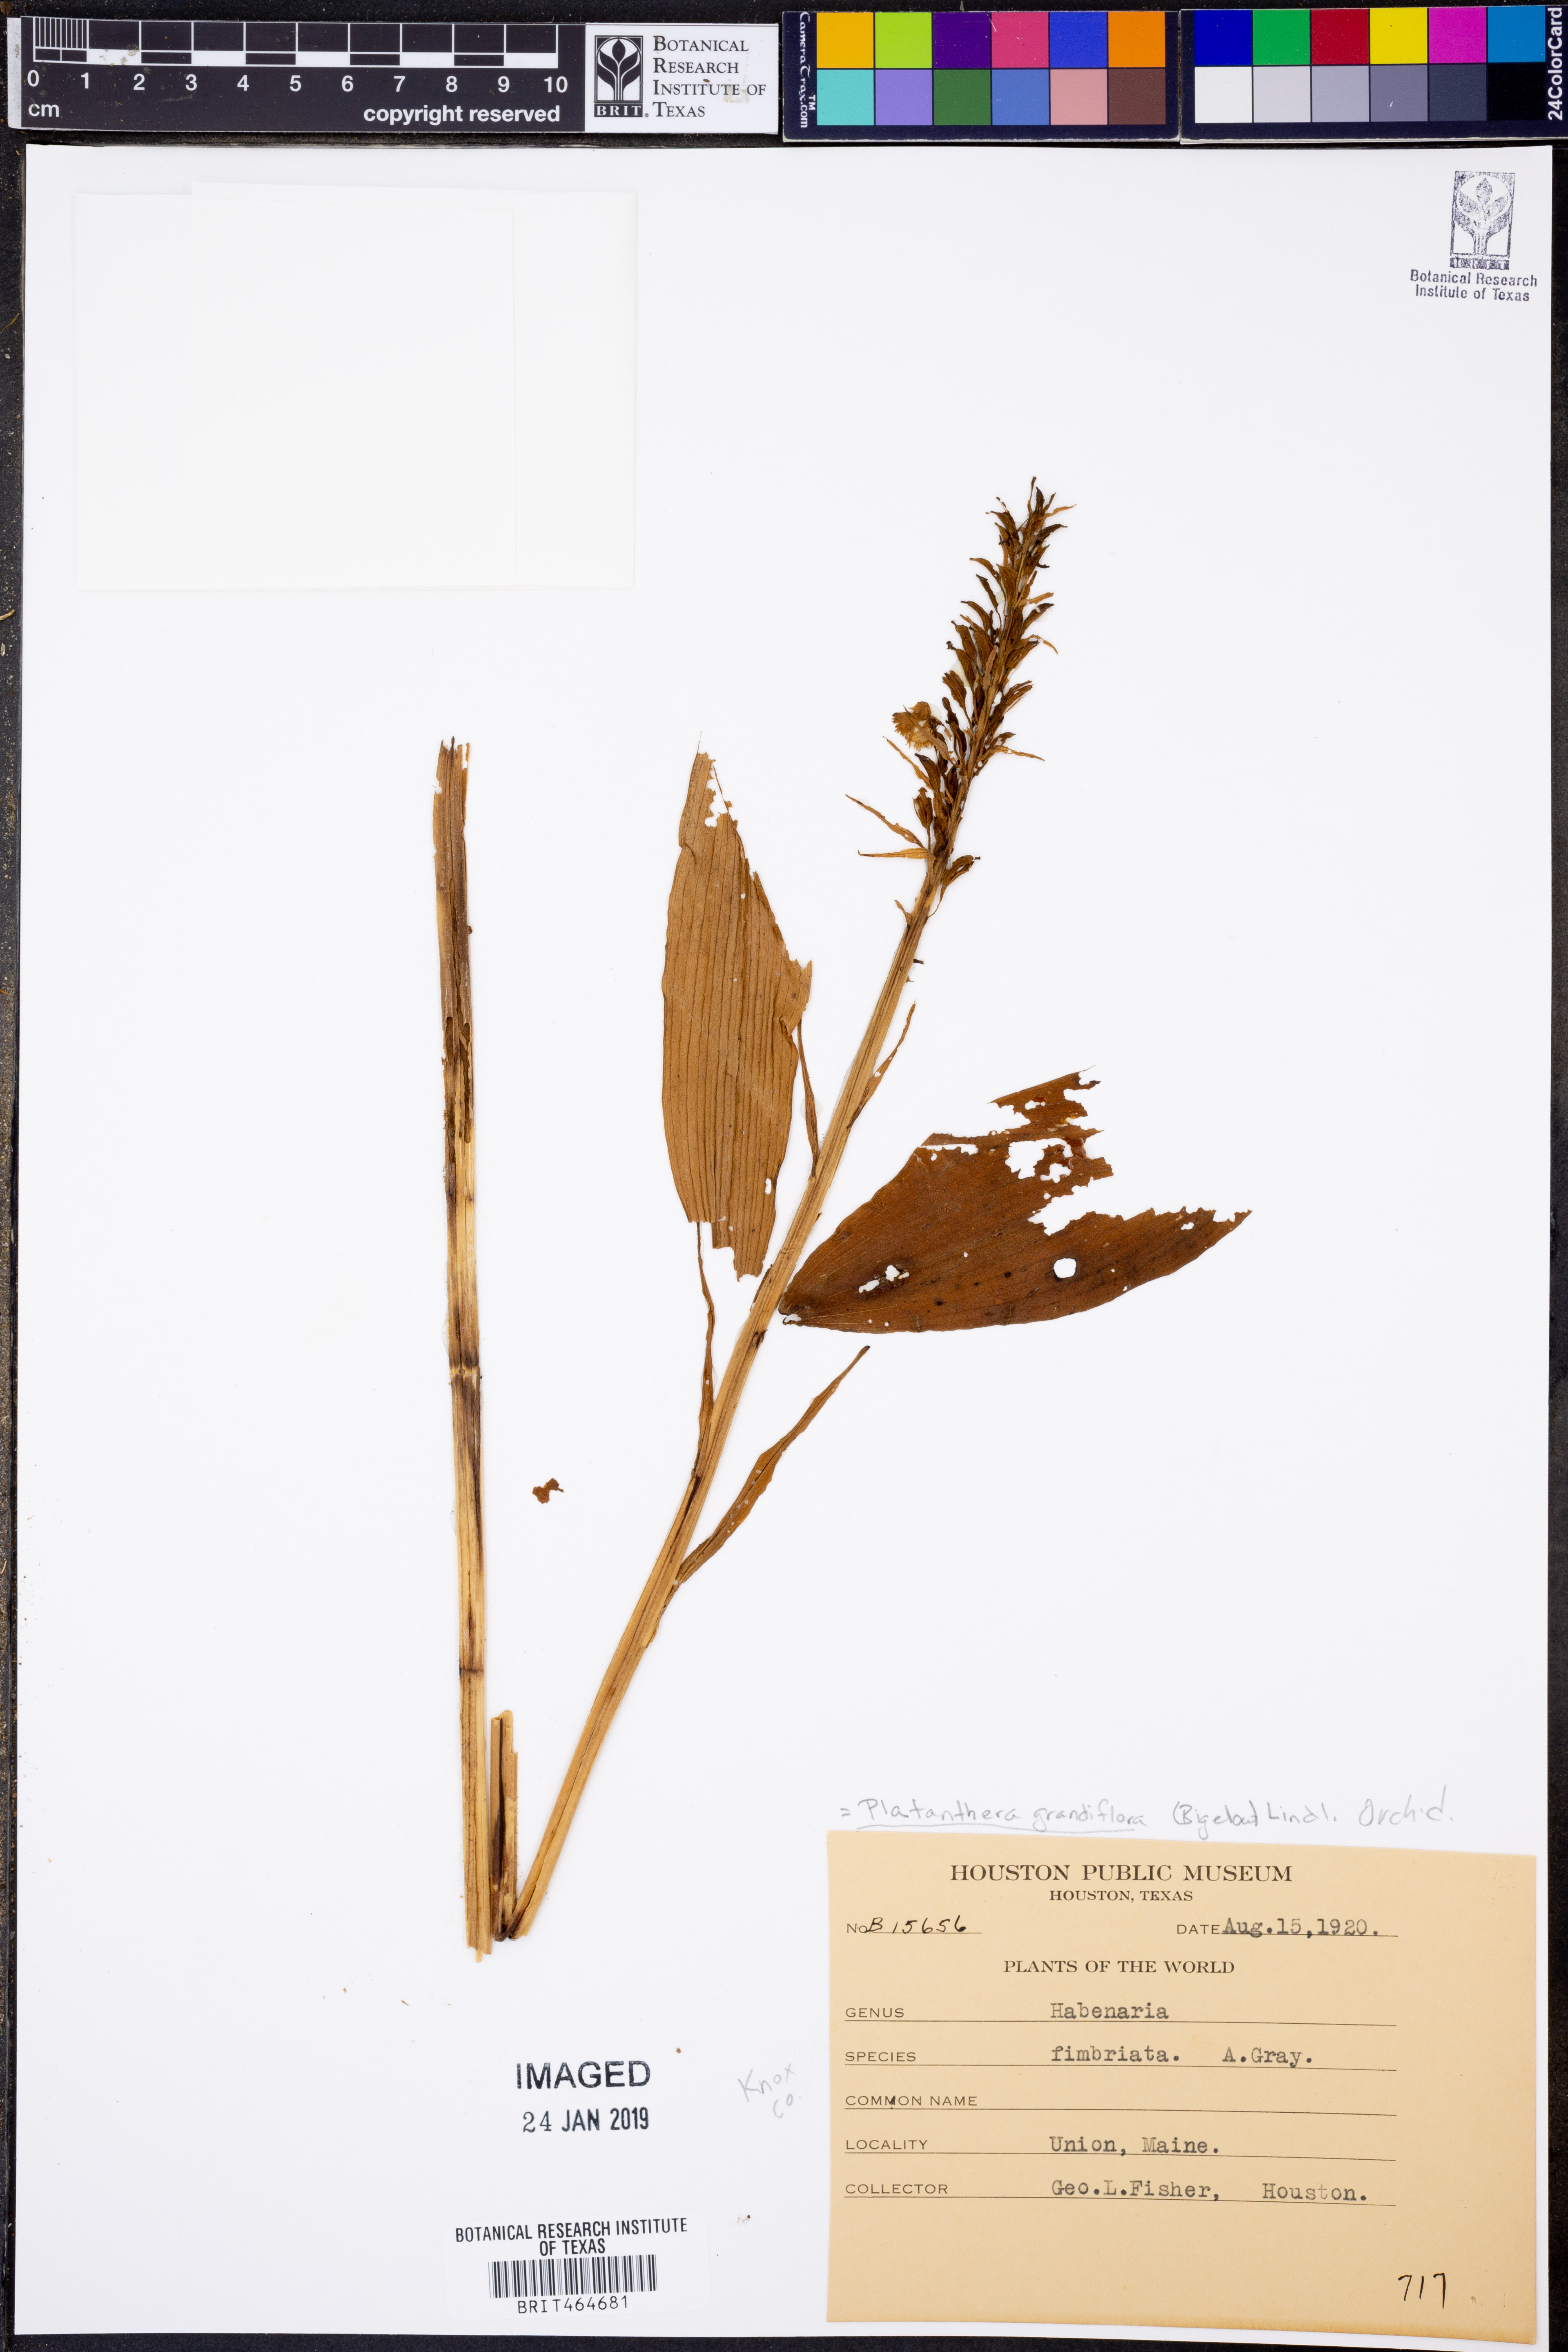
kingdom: Plantae
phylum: Tracheophyta
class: Liliopsida
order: Asparagales
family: Orchidaceae
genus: Platanthera
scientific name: Platanthera grandiflora
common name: Greater purple fringed orchid
